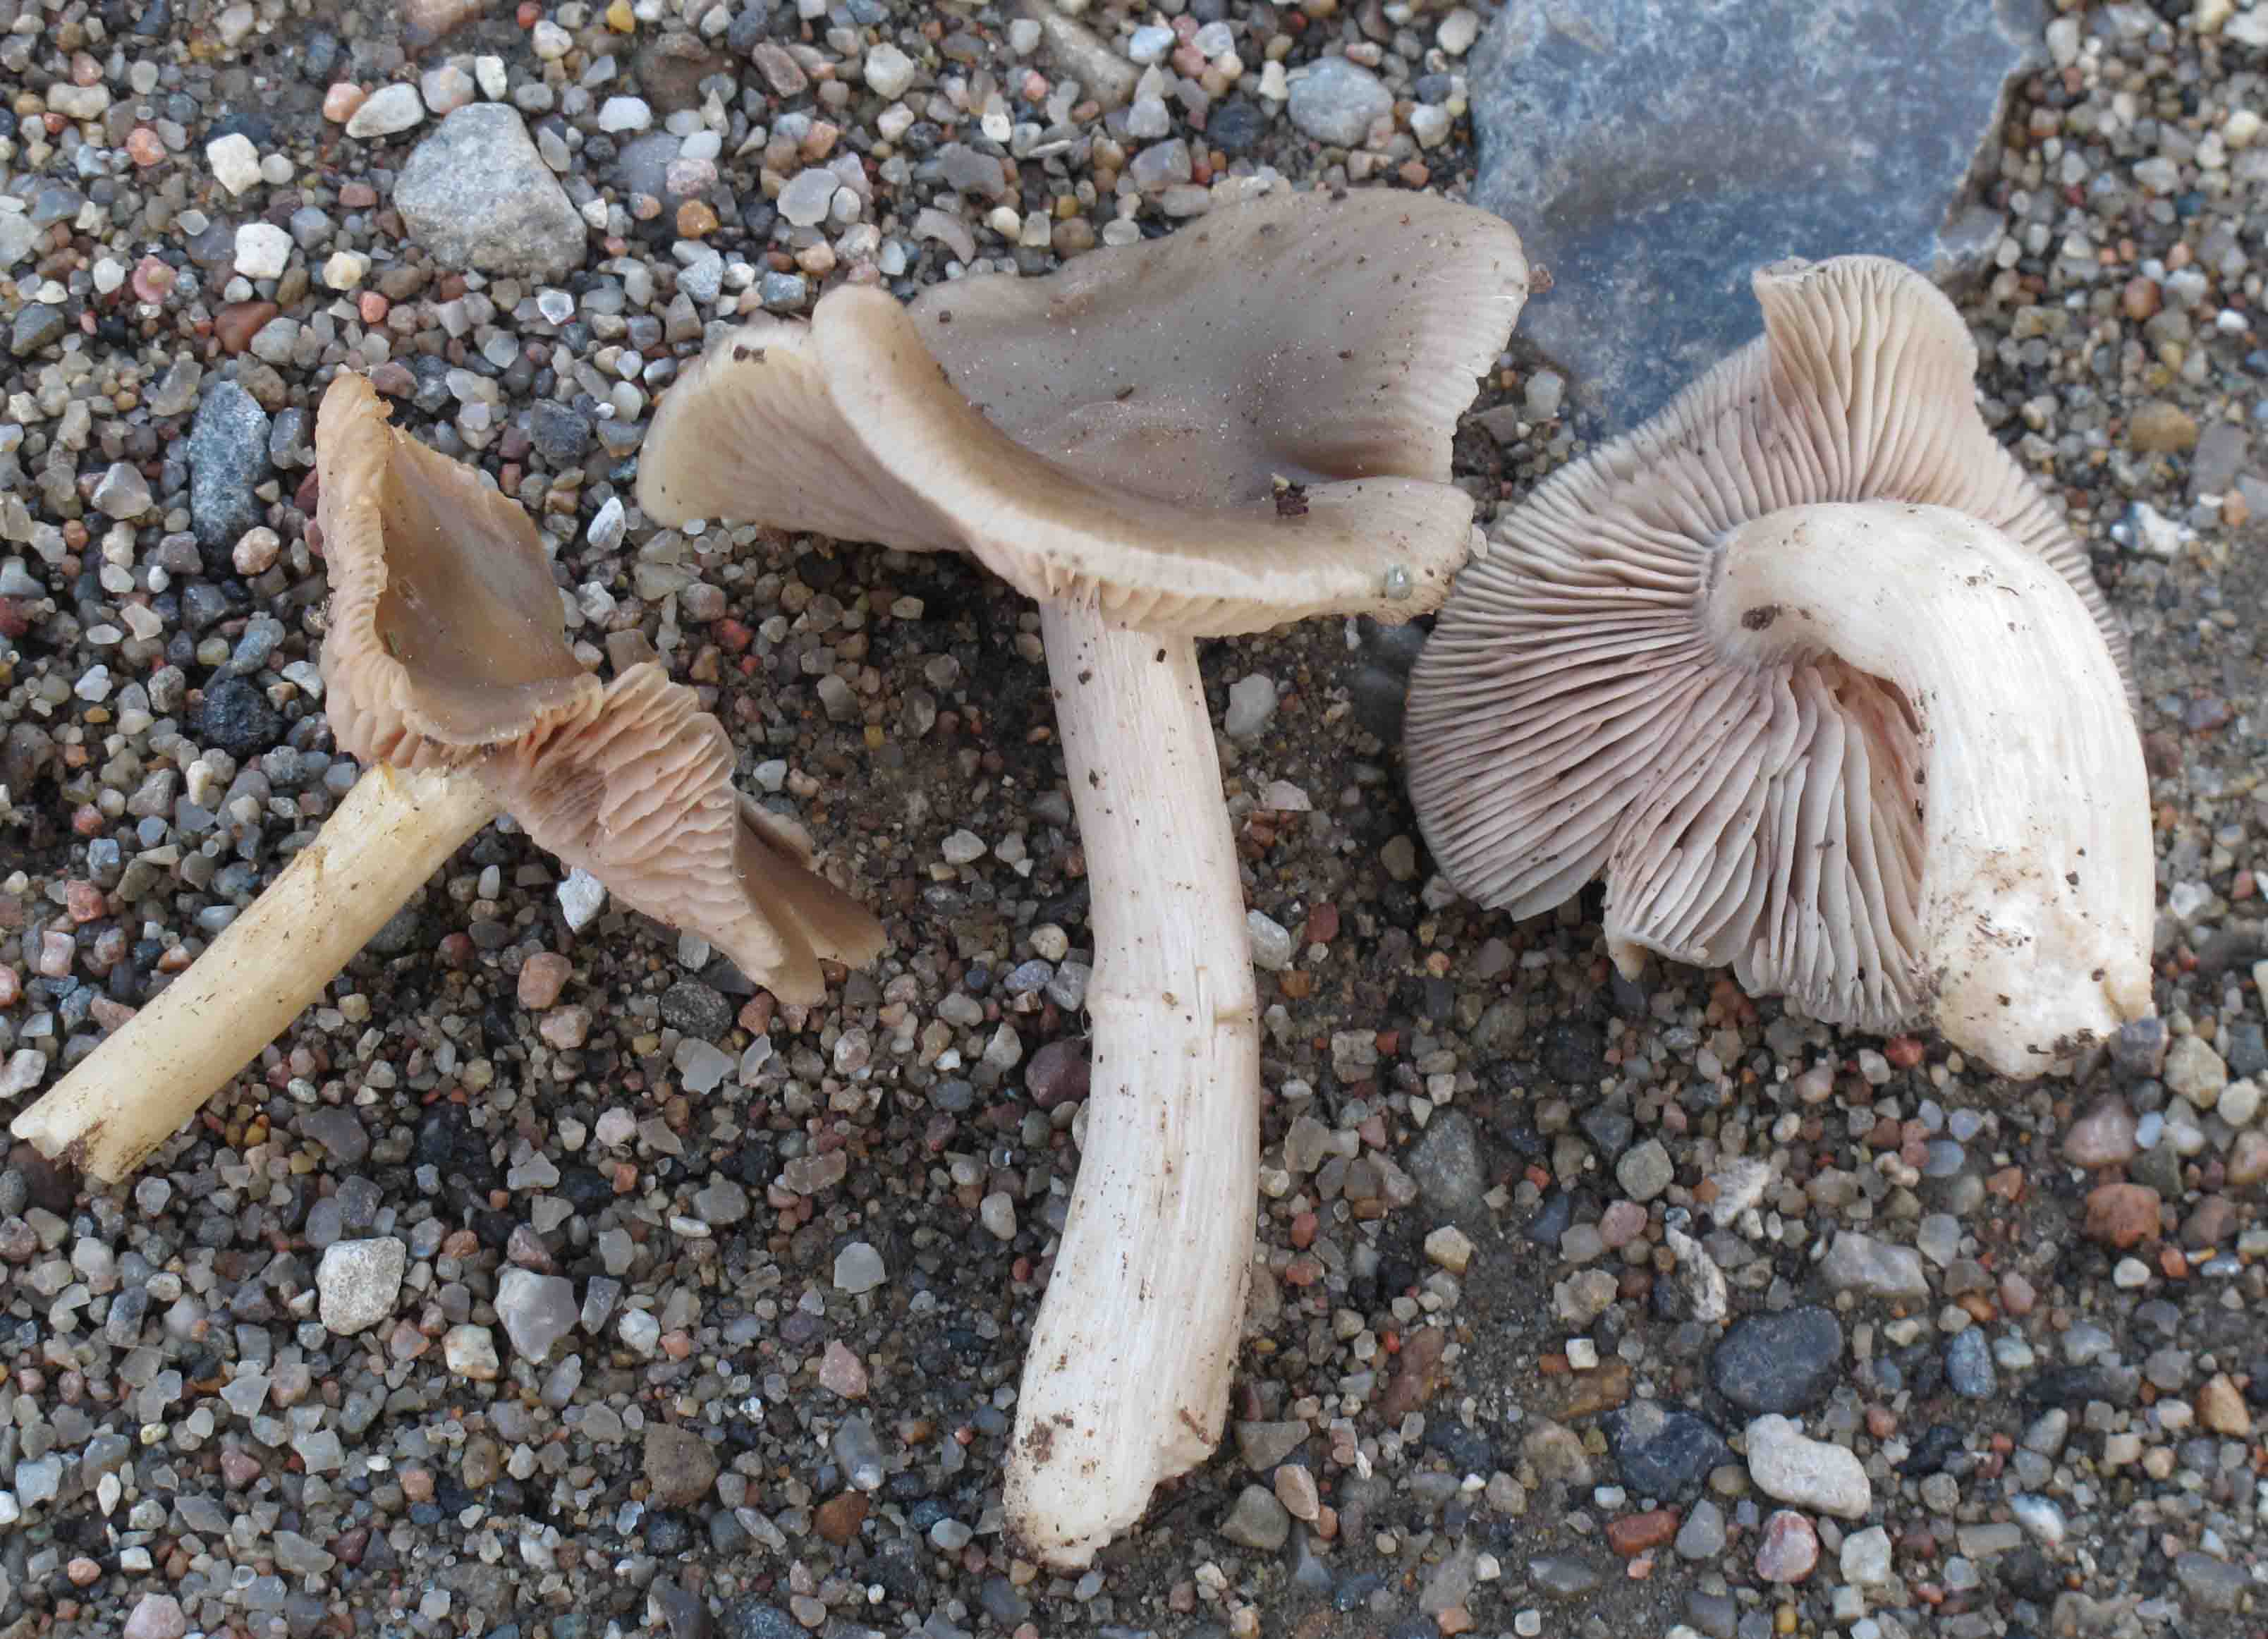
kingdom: Fungi
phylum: Basidiomycota
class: Agaricomycetes
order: Agaricales
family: Entolomataceae
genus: Entoloma
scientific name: Entoloma sericatum
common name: rank rødblad
